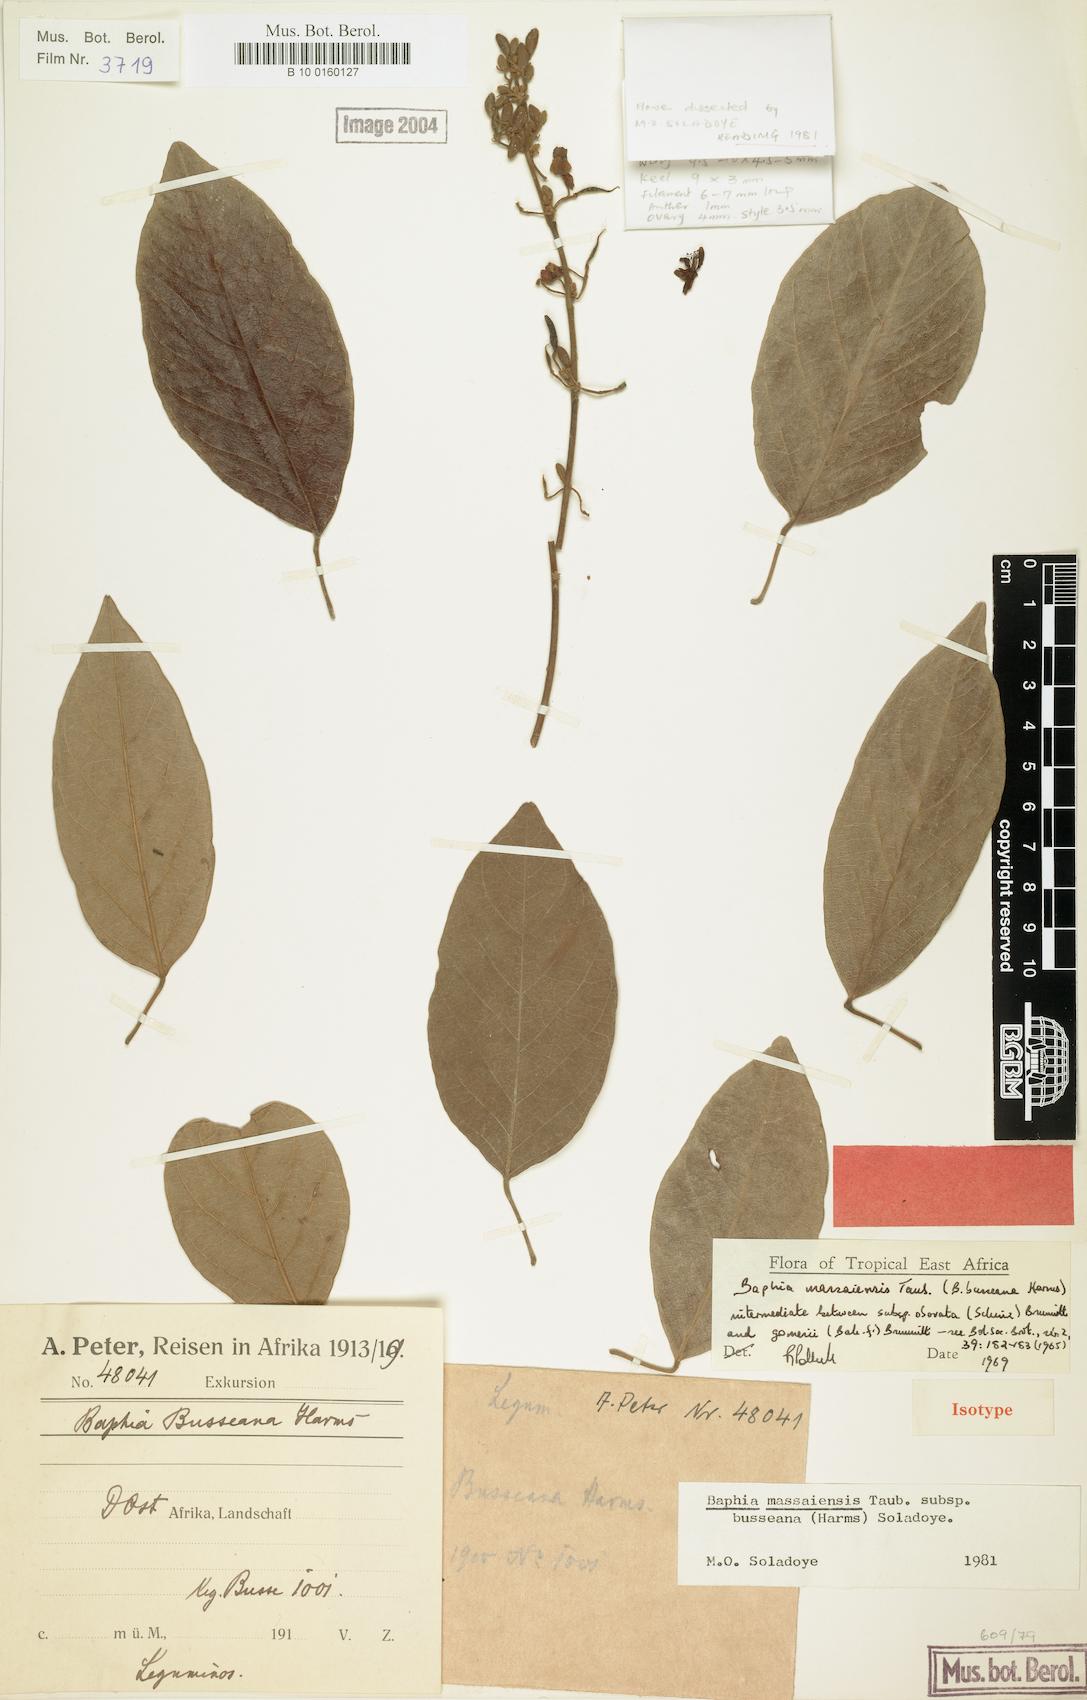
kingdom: Plantae
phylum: Tracheophyta
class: Magnoliopsida
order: Fabales
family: Fabaceae
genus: Baphia
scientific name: Baphia massaiensis
